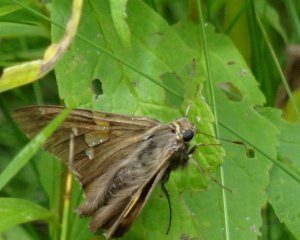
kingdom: Animalia
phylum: Arthropoda
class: Insecta
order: Lepidoptera
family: Hesperiidae
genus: Epargyreus
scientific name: Epargyreus clarus
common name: Silver-spotted Skipper
